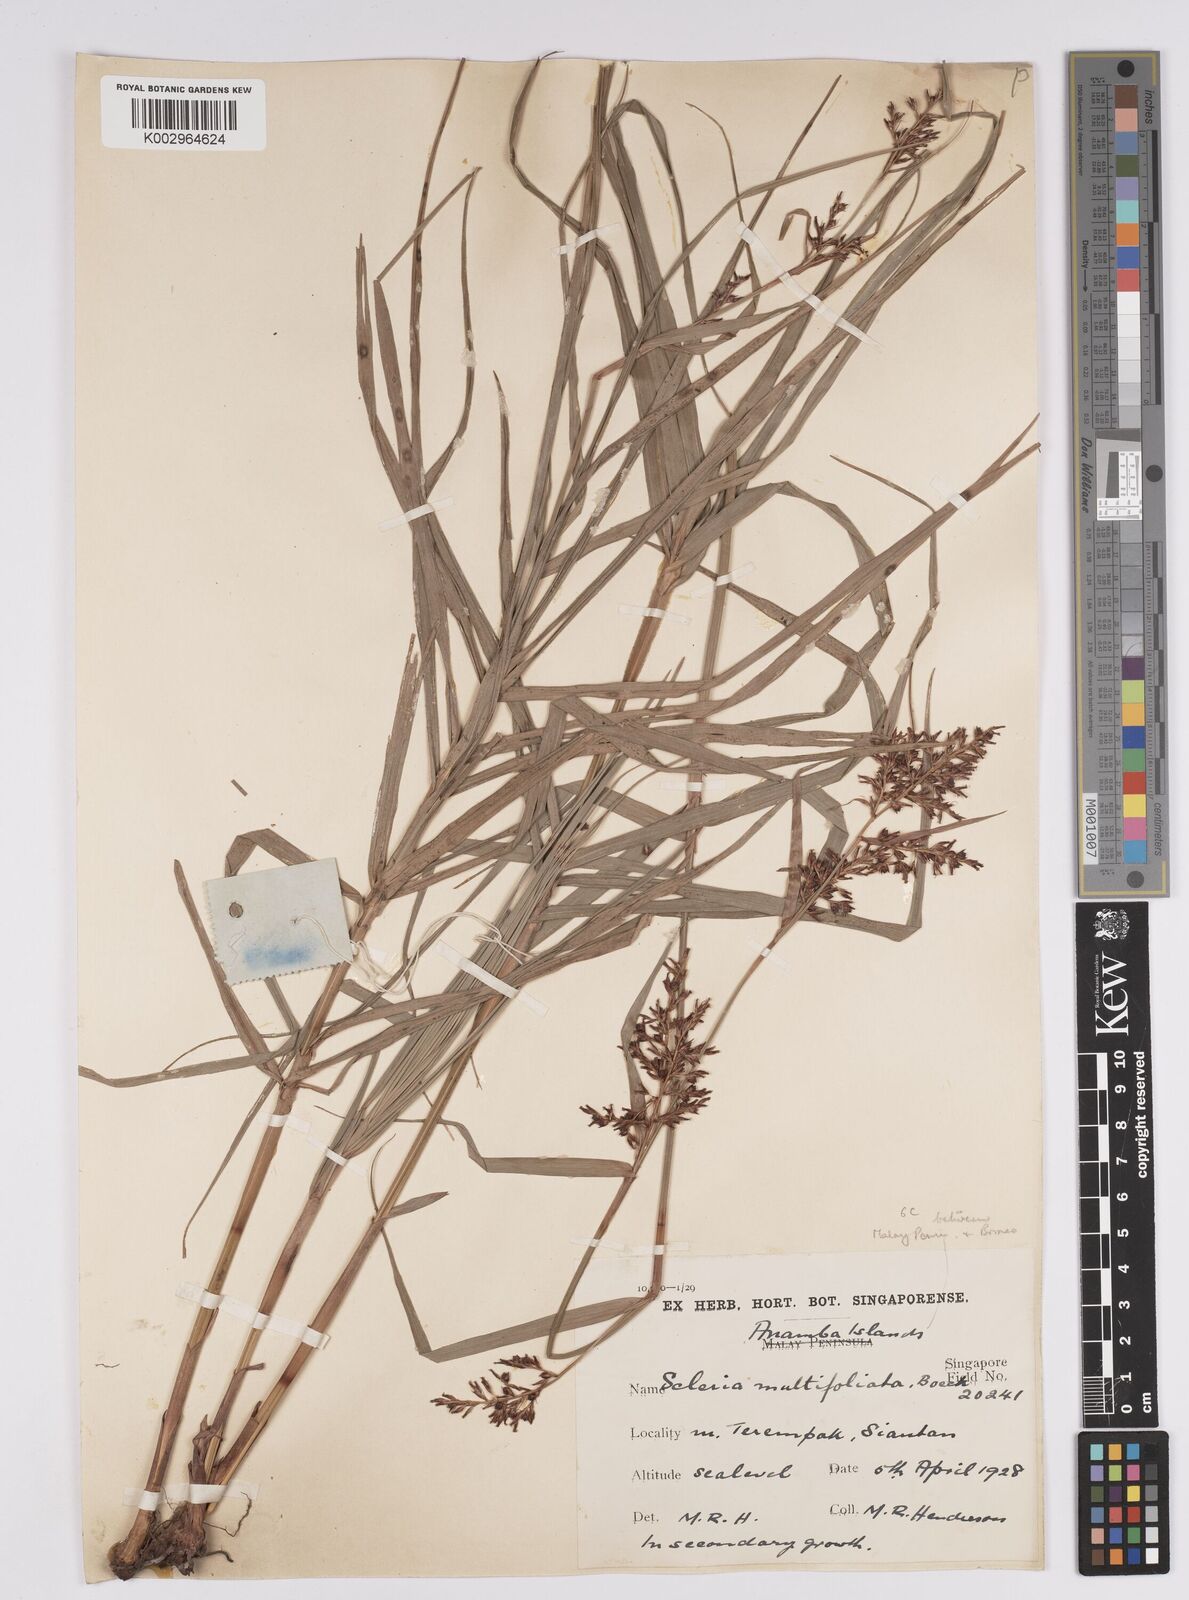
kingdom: Plantae
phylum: Tracheophyta
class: Liliopsida
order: Poales
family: Cyperaceae
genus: Scleria
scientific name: Scleria purpurascens
